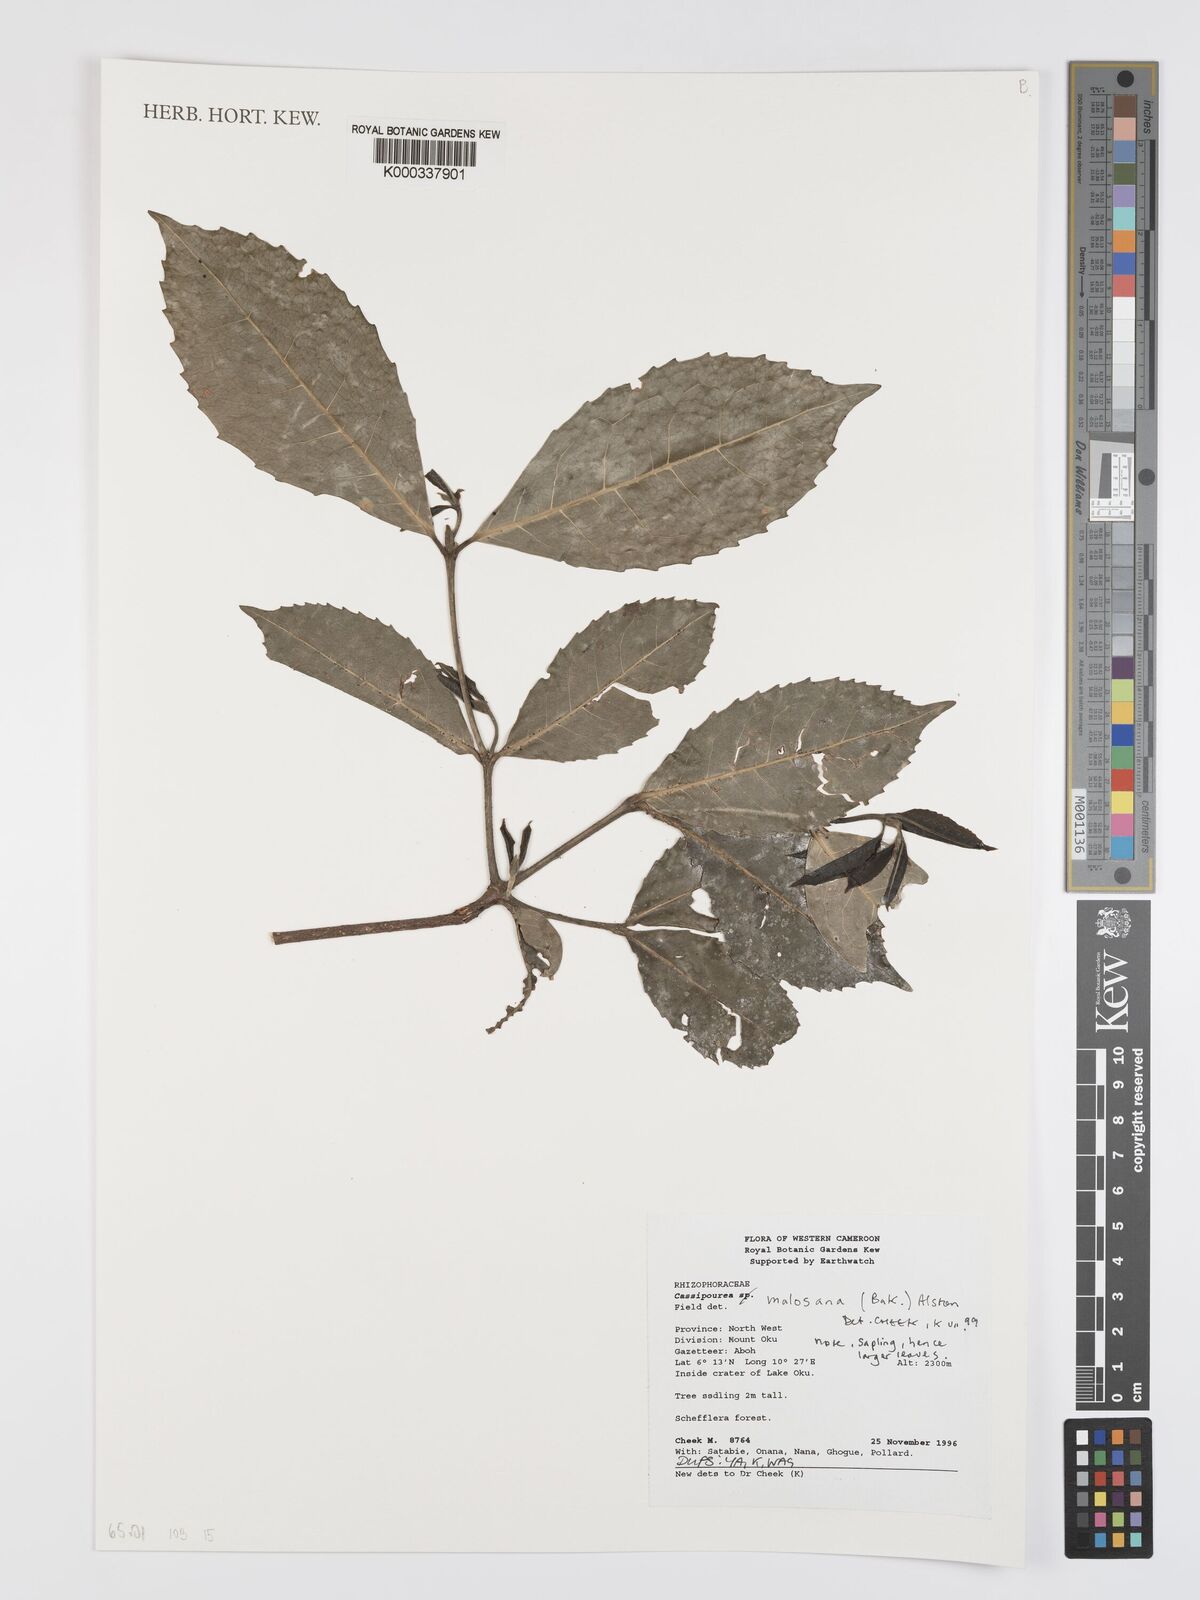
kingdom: Plantae
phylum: Tracheophyta
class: Magnoliopsida
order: Malpighiales
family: Rhizophoraceae
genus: Cassipourea
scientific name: Cassipourea malosana
